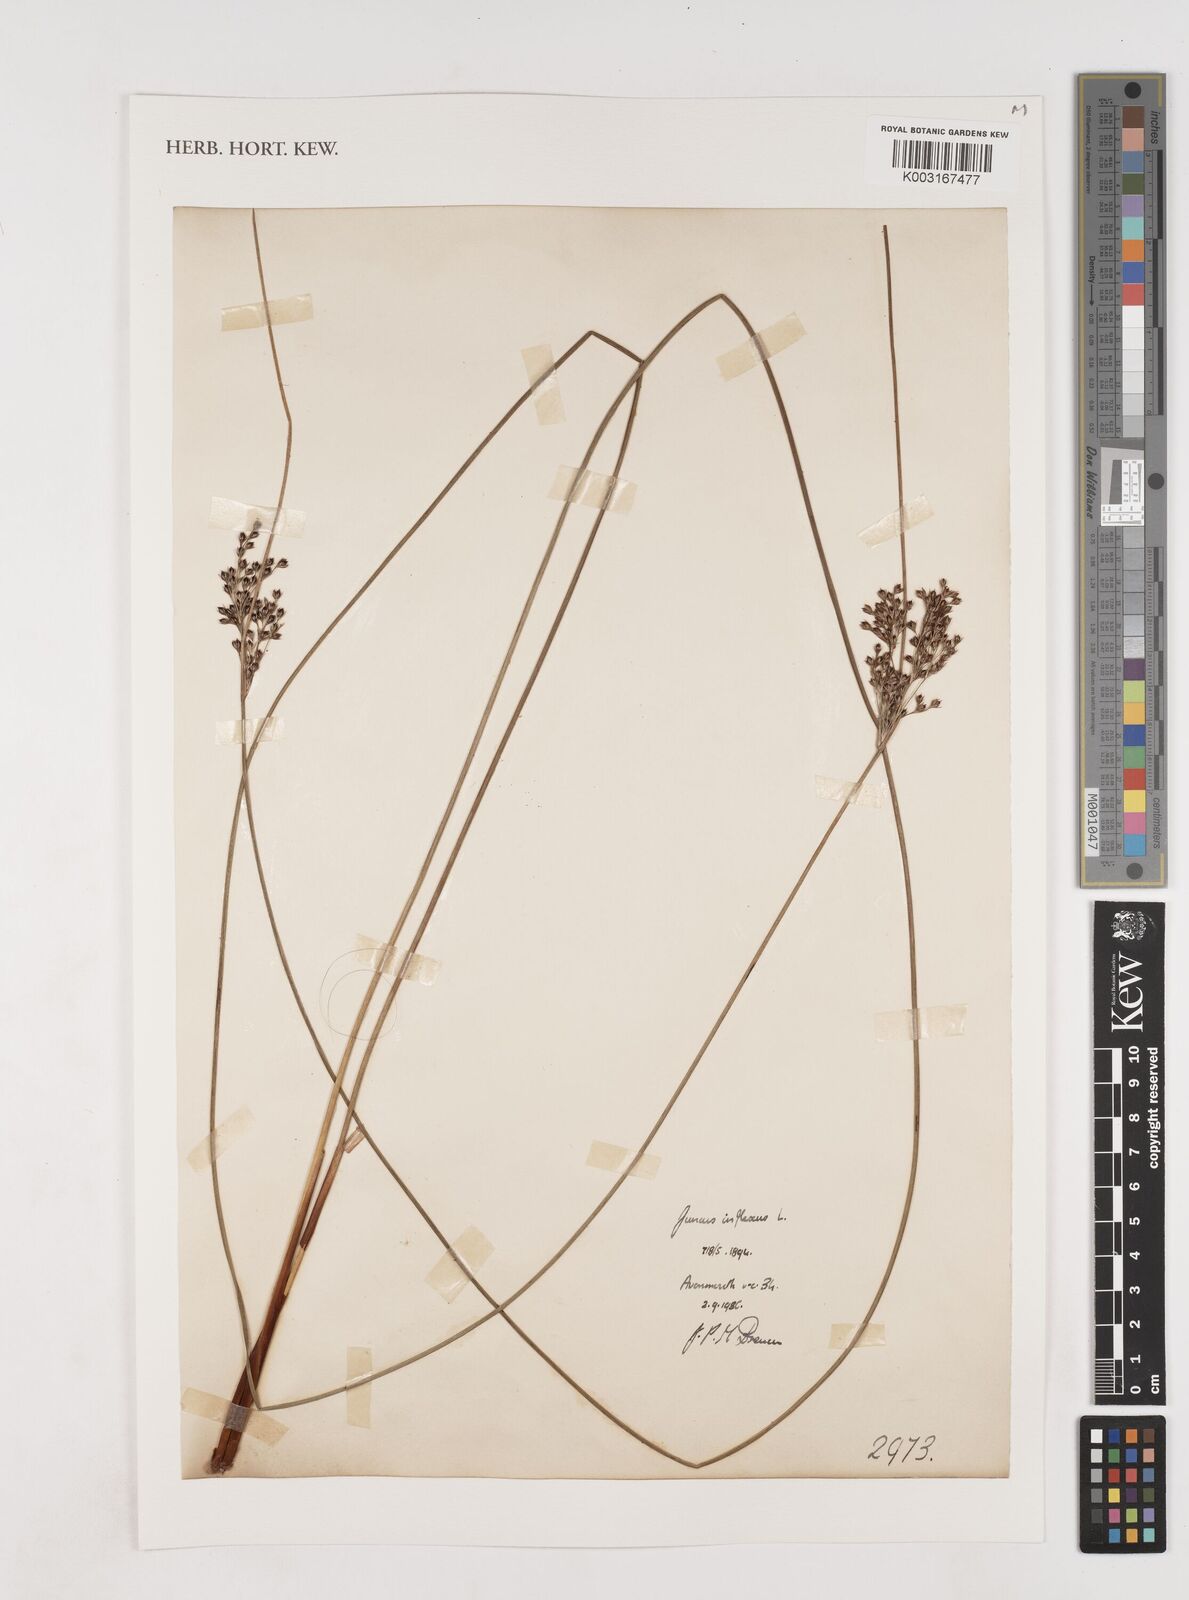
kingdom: Plantae
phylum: Tracheophyta
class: Liliopsida
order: Poales
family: Juncaceae
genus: Juncus
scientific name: Juncus inflexus
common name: Hard rush
